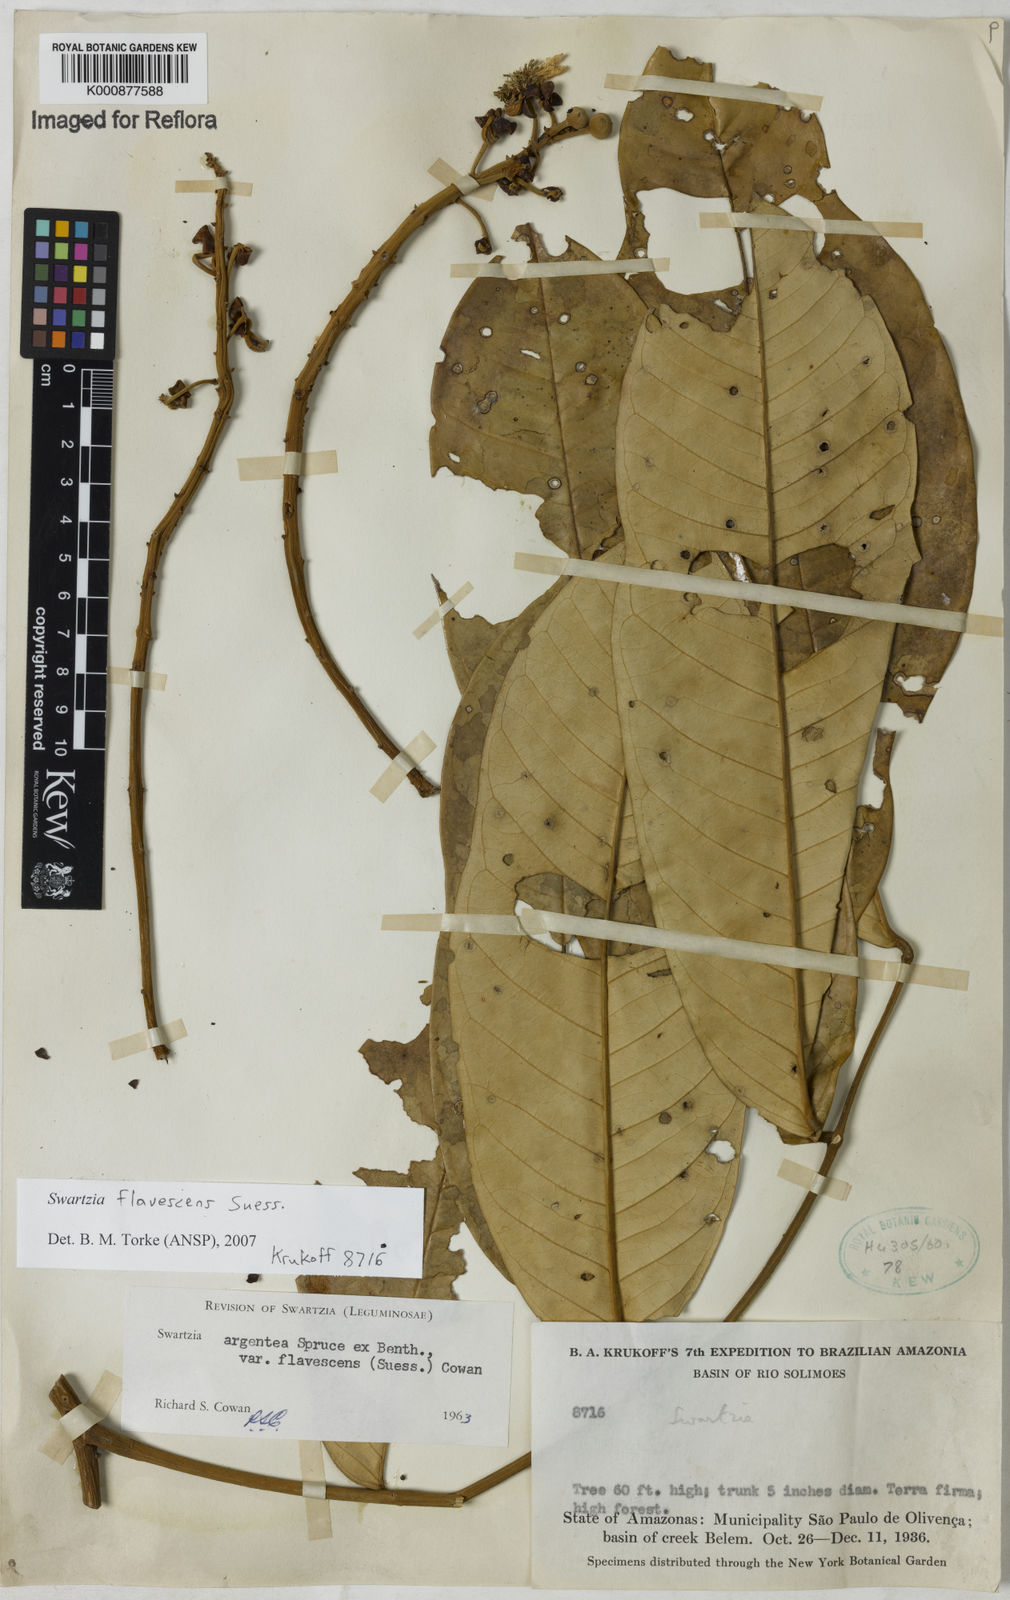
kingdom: Plantae
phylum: Tracheophyta
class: Magnoliopsida
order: Fabales
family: Fabaceae
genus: Swartzia
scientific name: Swartzia flavescens
